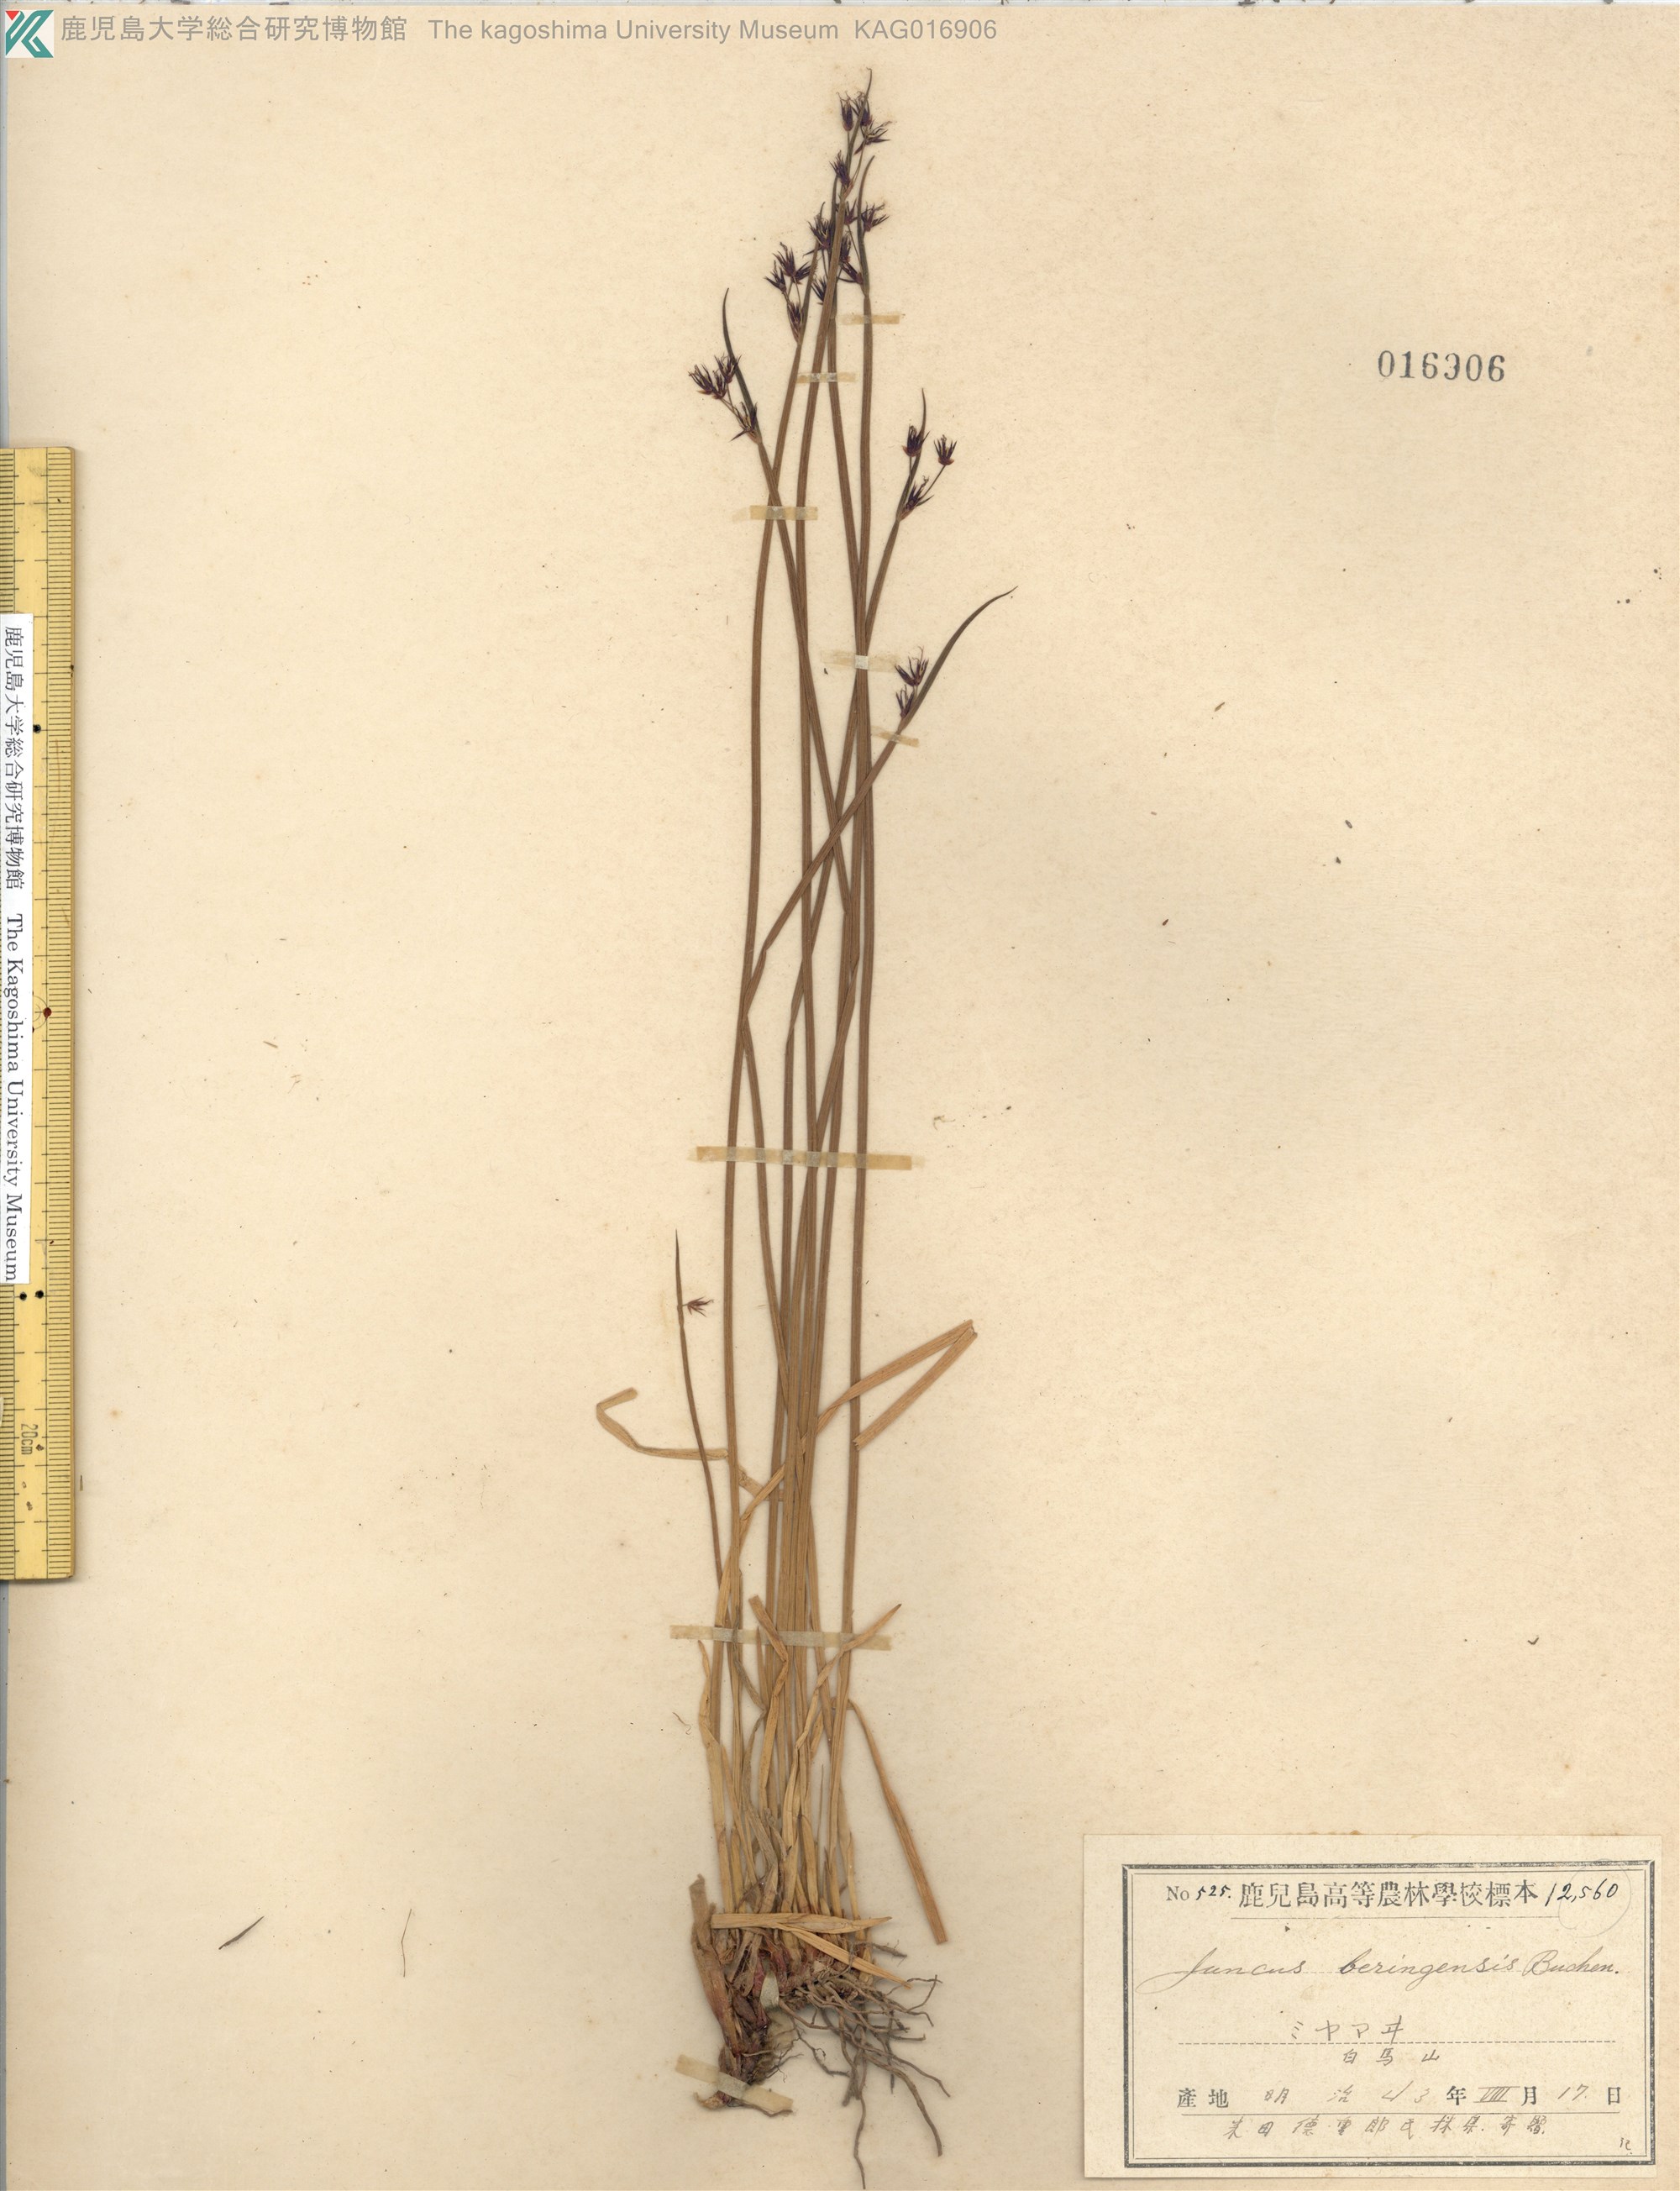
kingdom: Plantae
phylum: Tracheophyta
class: Liliopsida
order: Poales
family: Juncaceae
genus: Juncus
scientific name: Juncus beringensis
